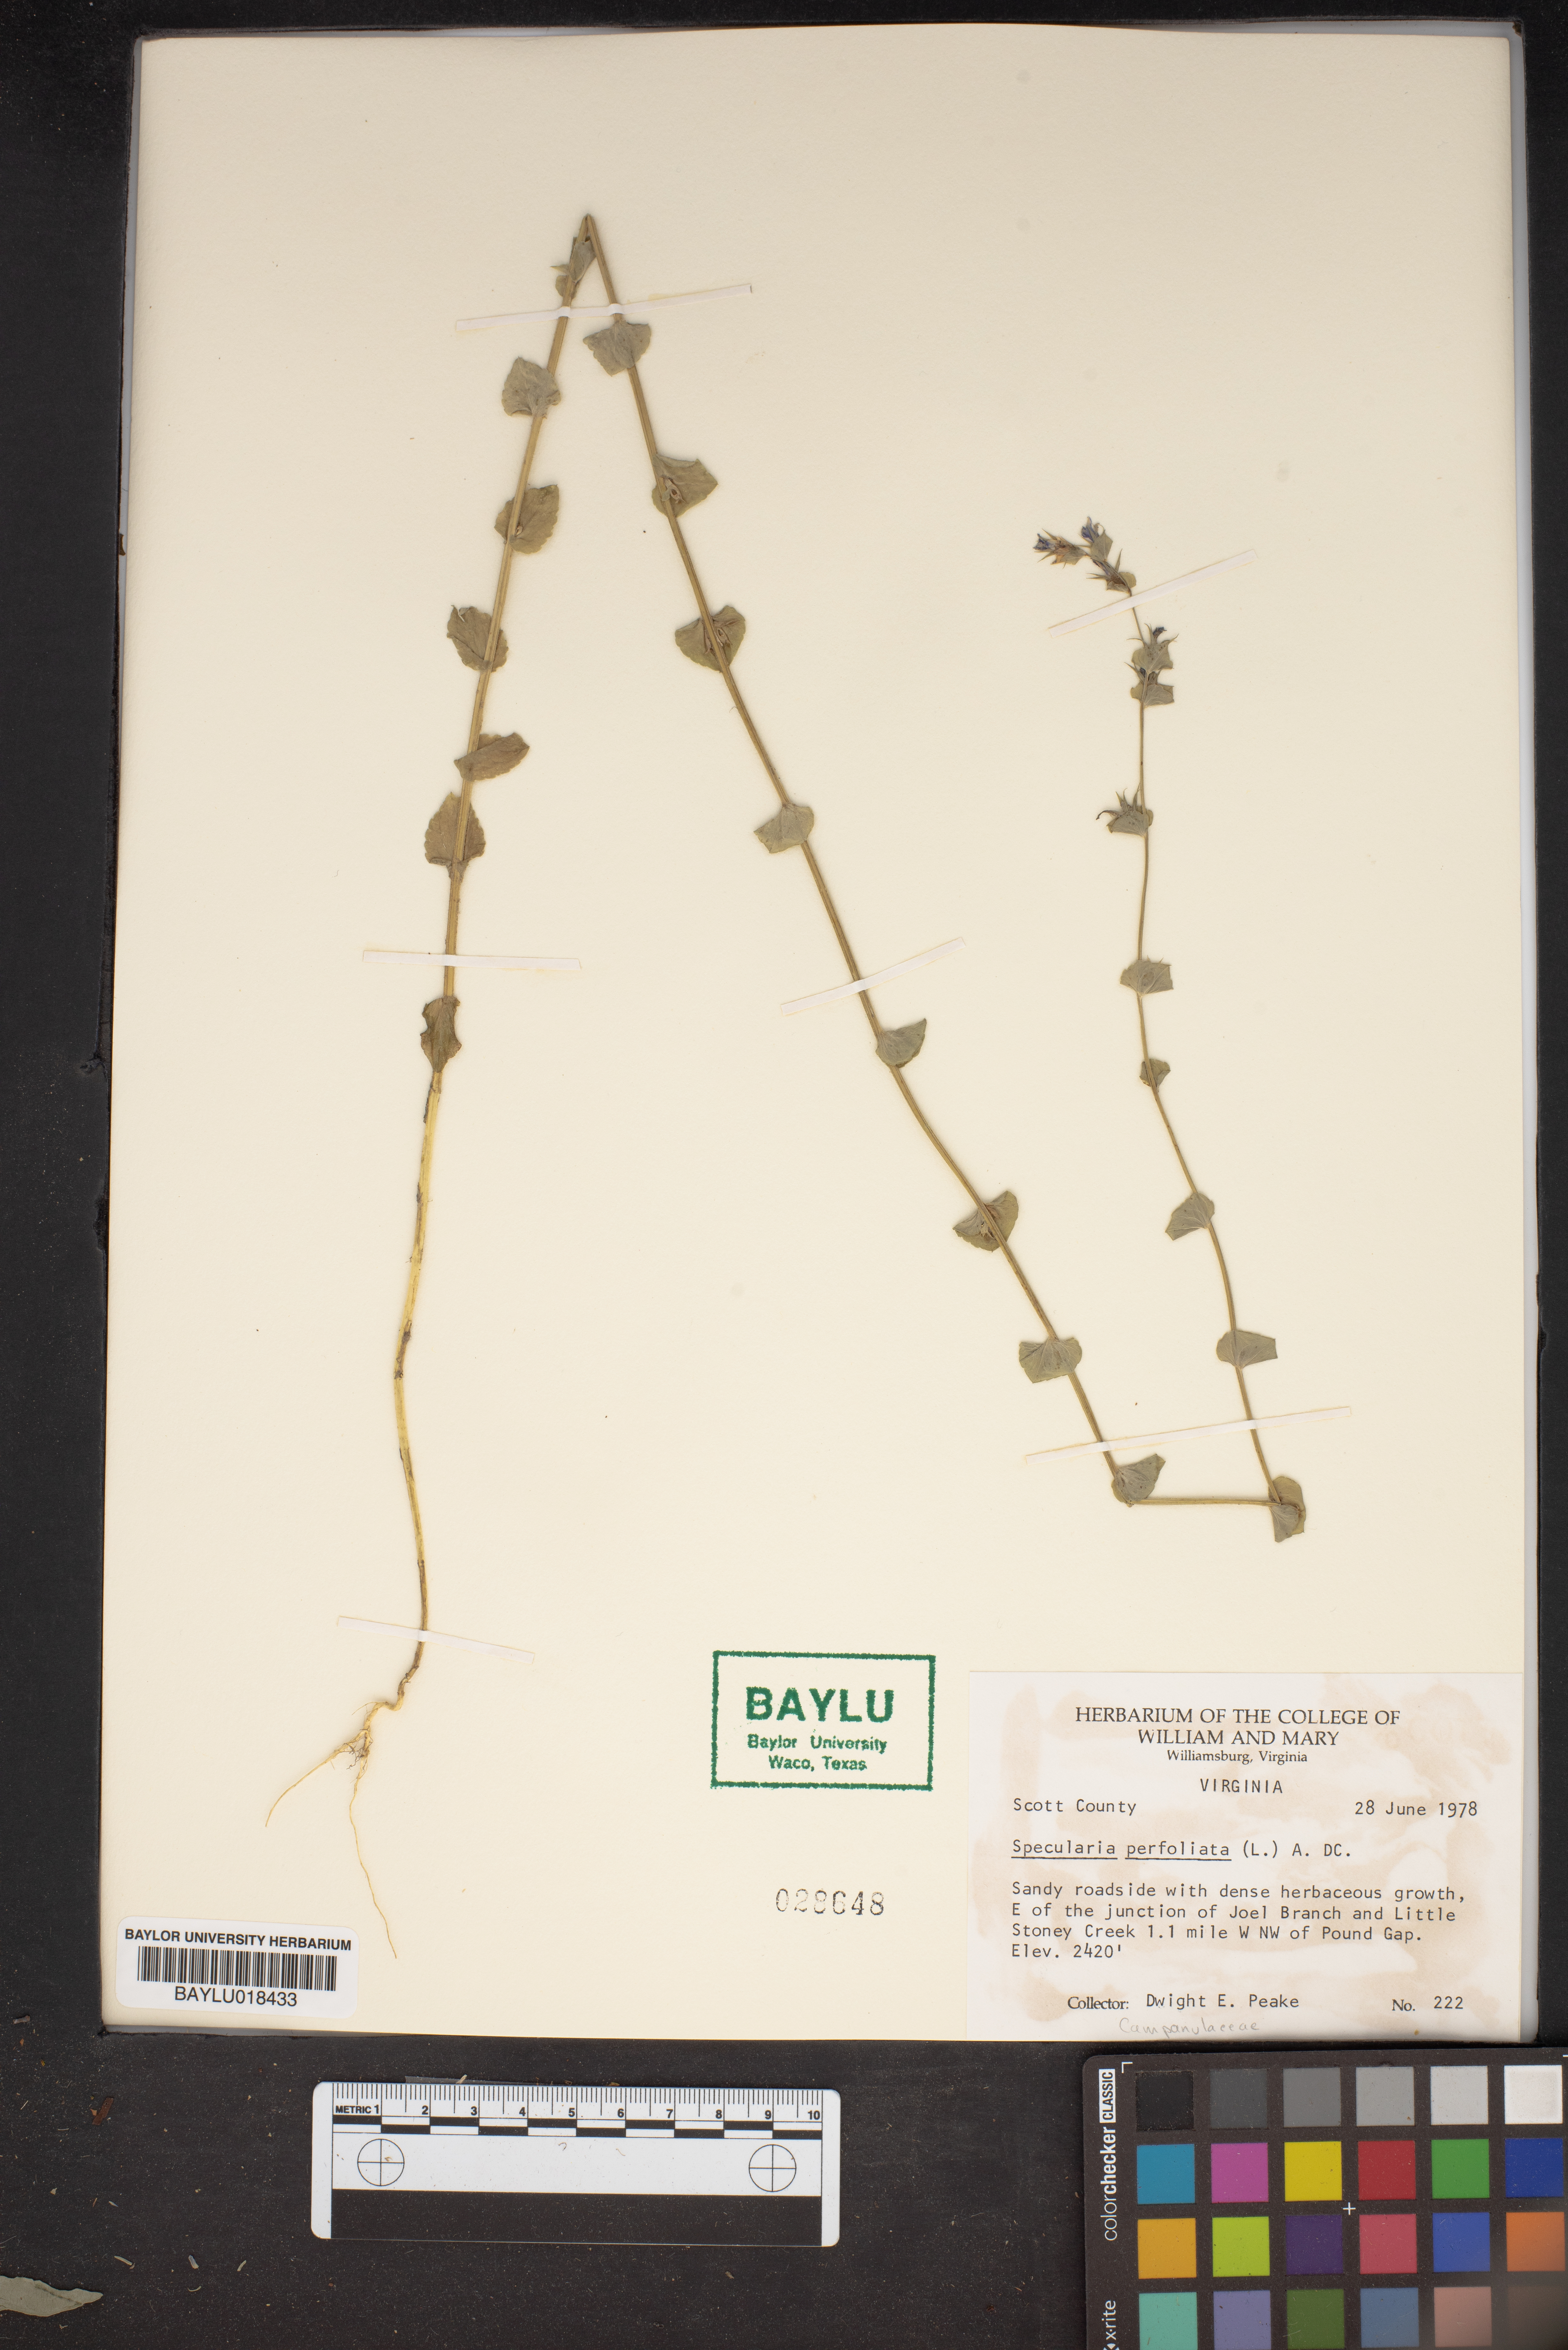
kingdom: Plantae
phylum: Tracheophyta
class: Magnoliopsida
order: Asterales
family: Campanulaceae
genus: Triodanis
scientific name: Triodanis perfoliata
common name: Clasping venus' looking-glass
